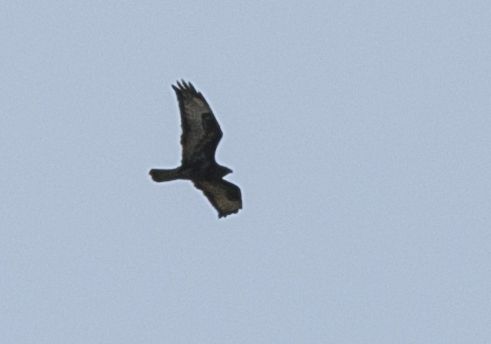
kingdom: Animalia
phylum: Chordata
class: Aves
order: Accipitriformes
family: Accipitridae
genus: Buteo
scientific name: Buteo buteo
